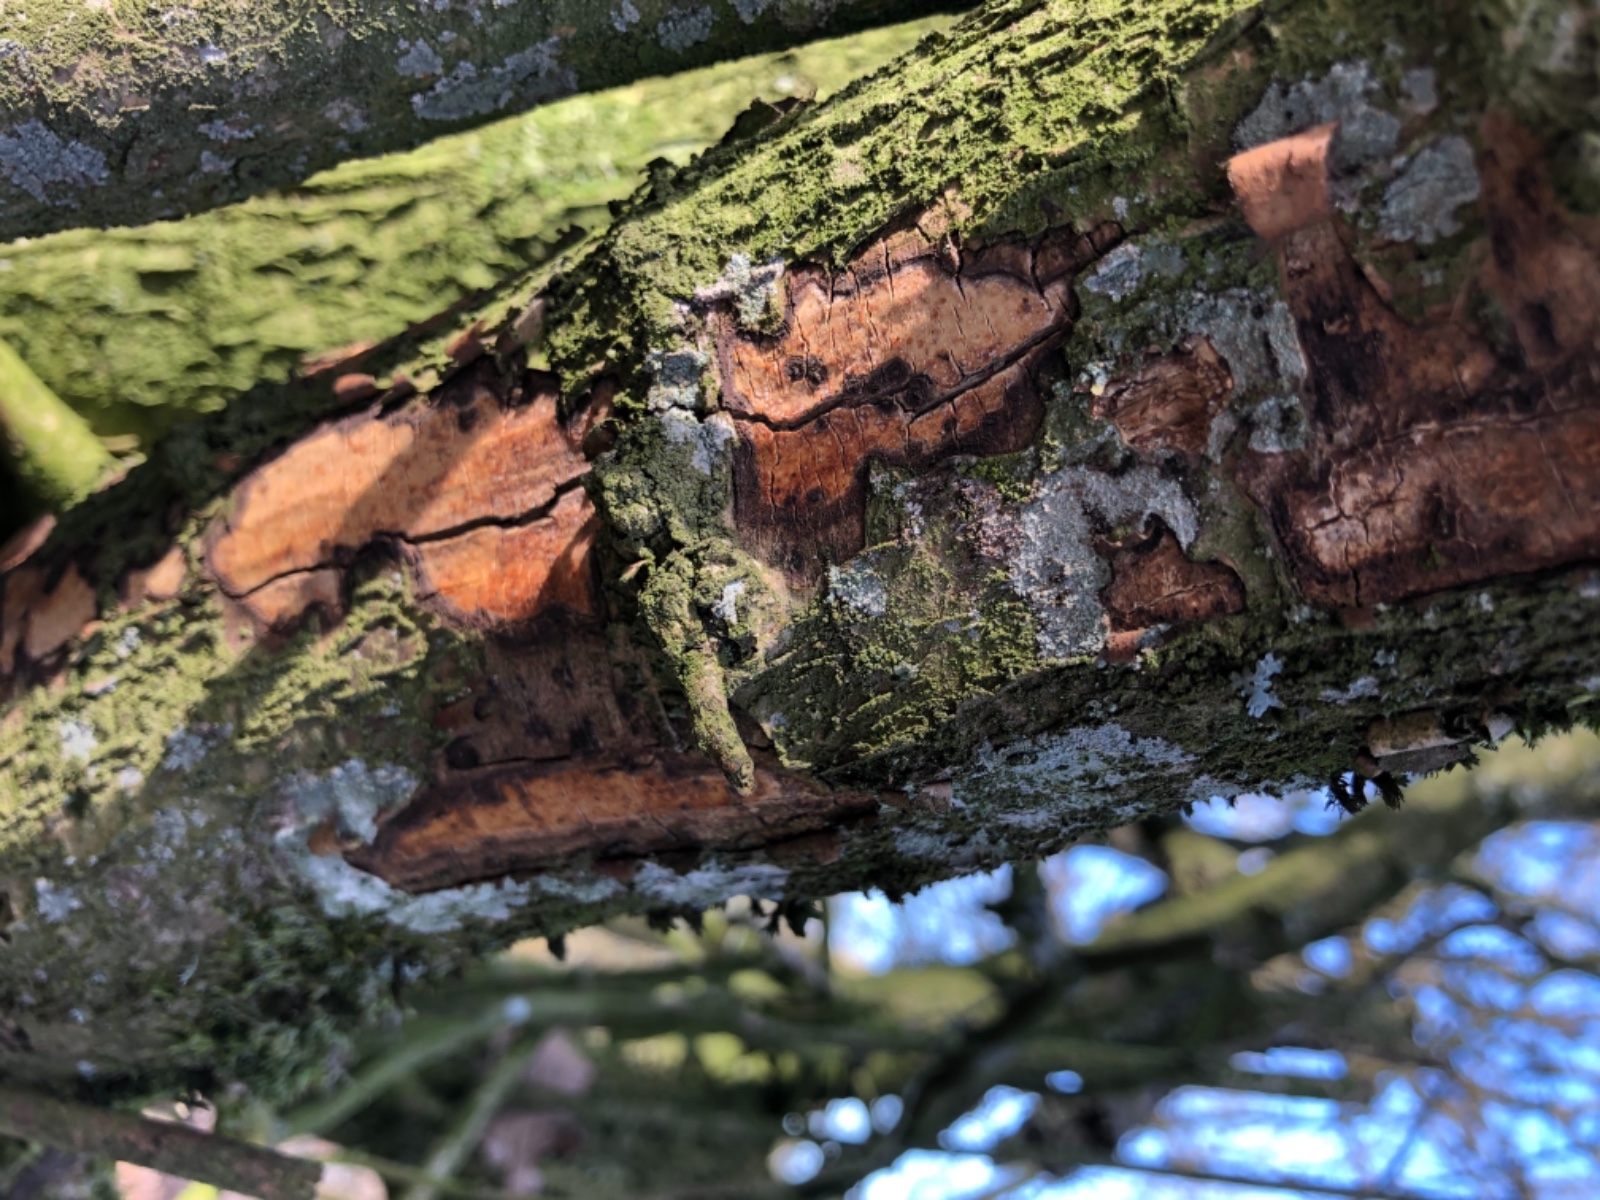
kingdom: Fungi
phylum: Basidiomycota
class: Agaricomycetes
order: Corticiales
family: Vuilleminiaceae
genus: Vuilleminia
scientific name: Vuilleminia coryli
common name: hassel-barksprænger
